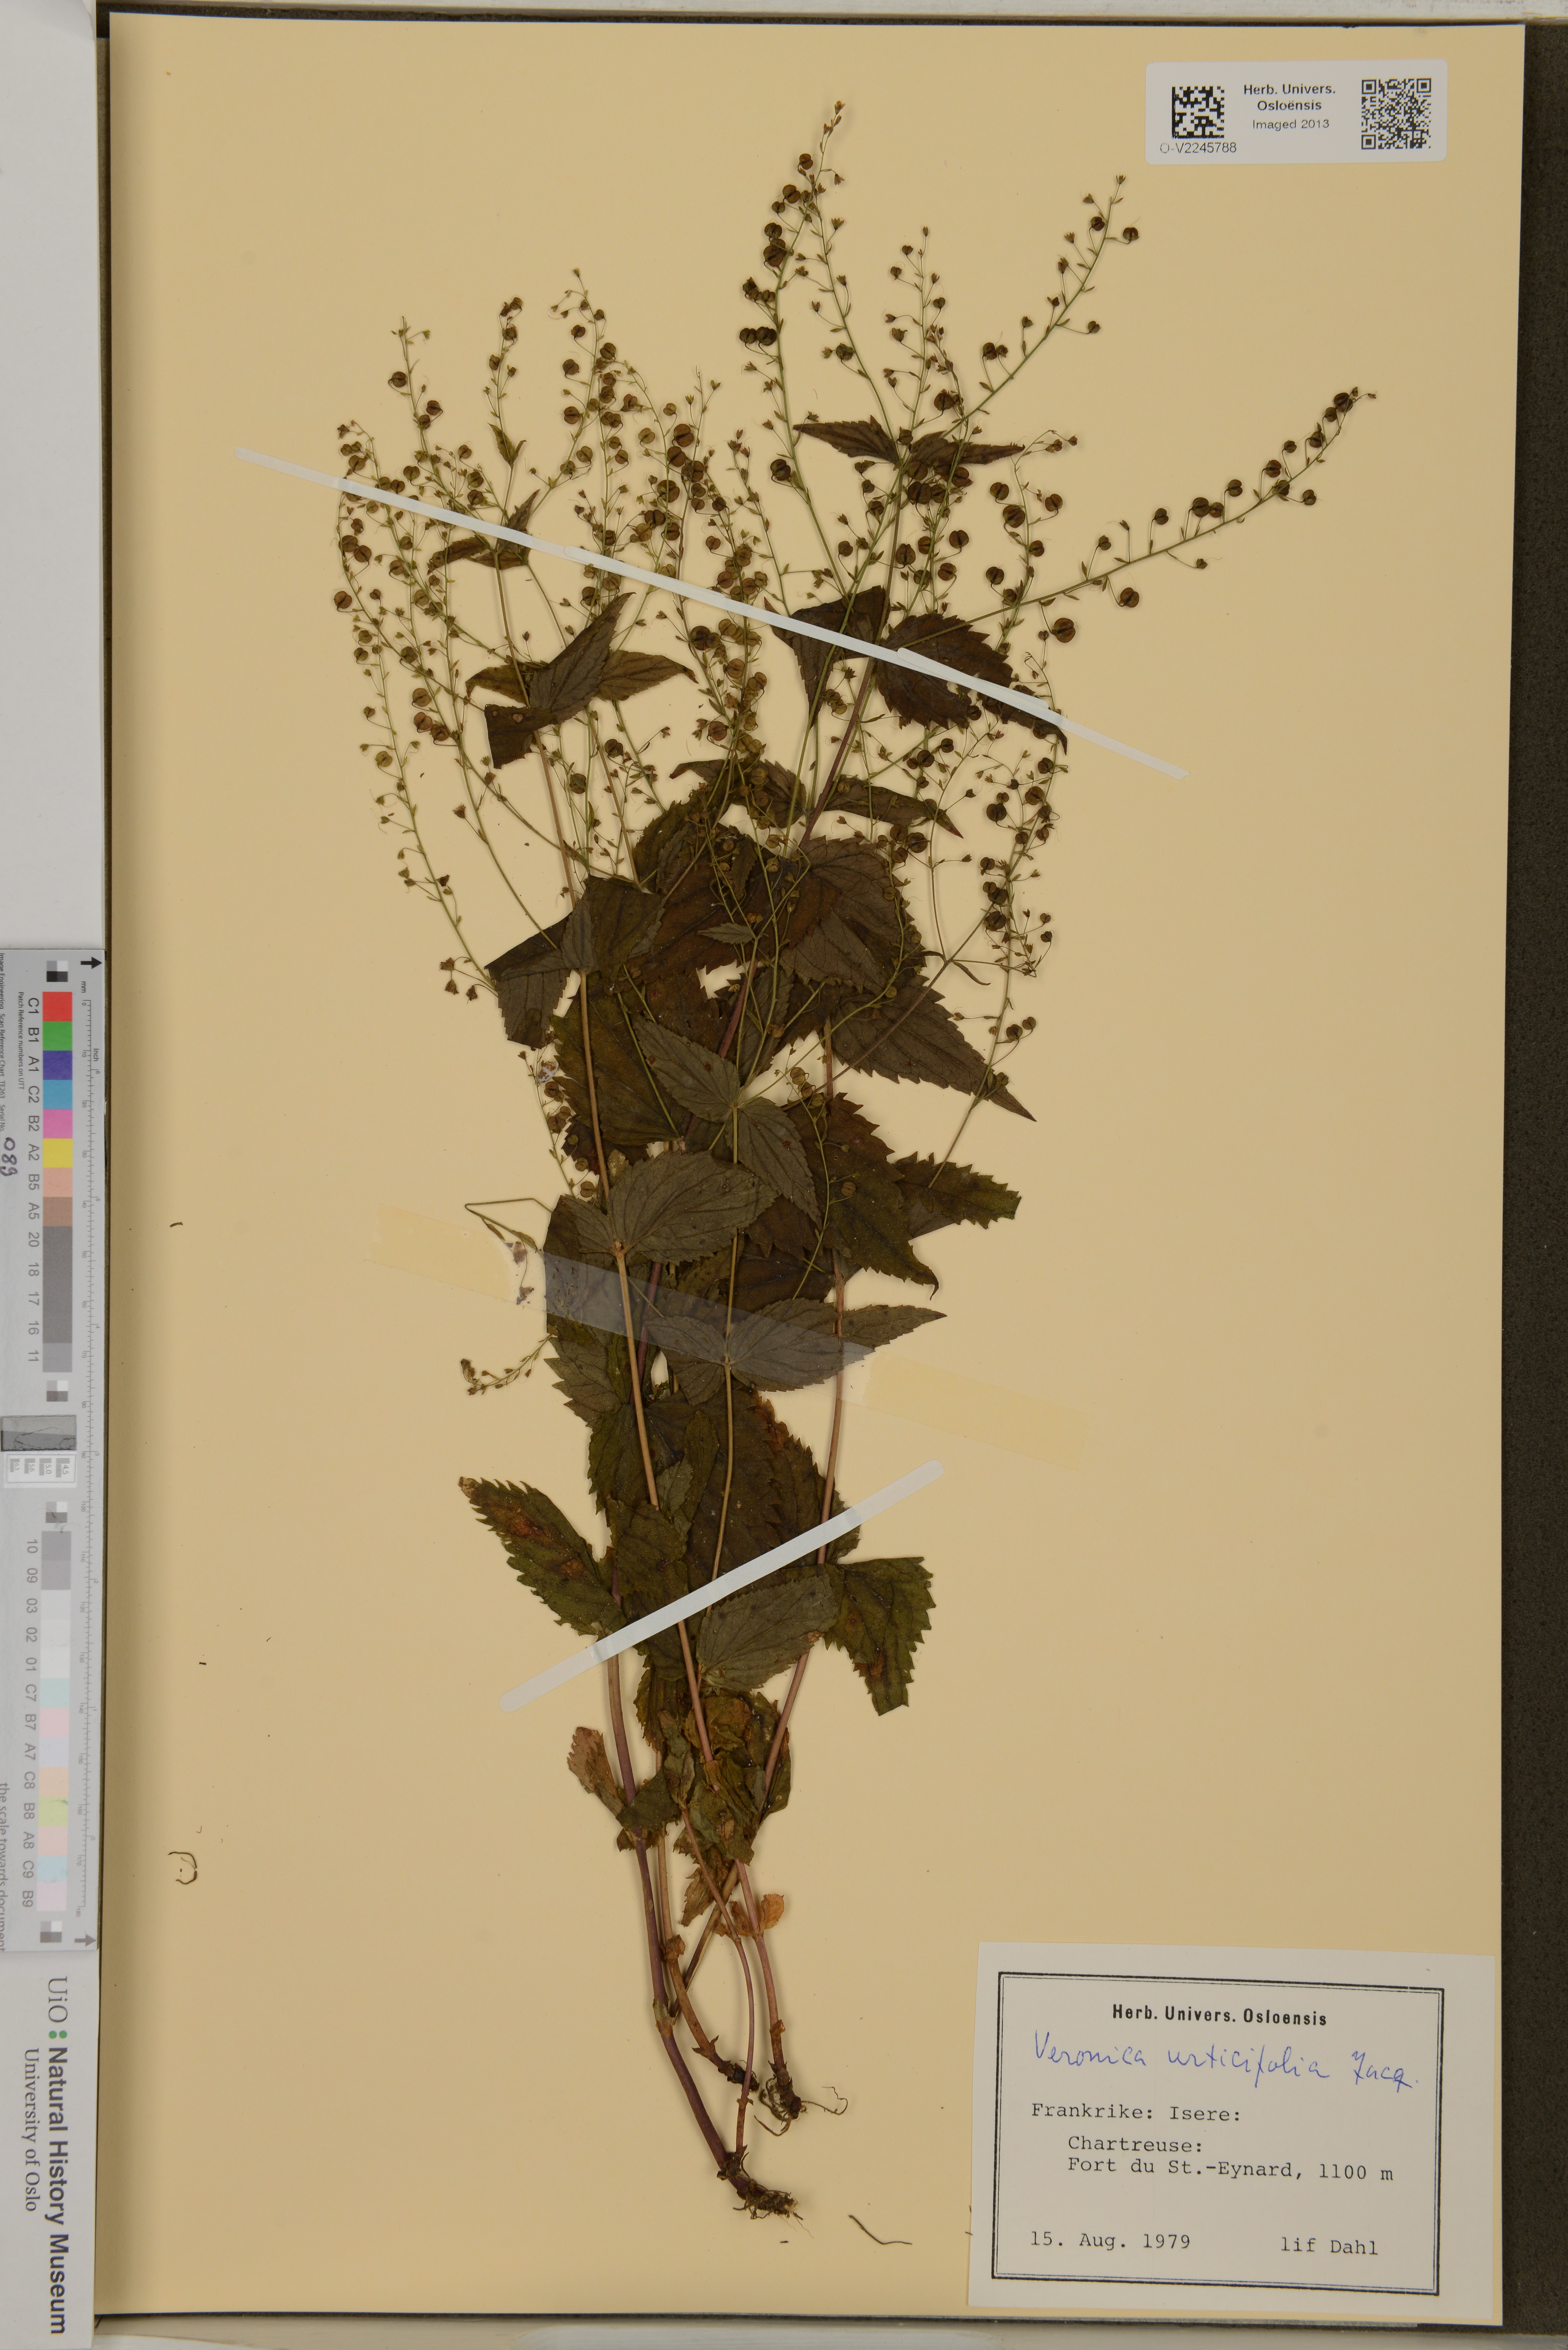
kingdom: Plantae
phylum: Tracheophyta
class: Magnoliopsida
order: Lamiales
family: Plantaginaceae
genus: Veronica
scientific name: Veronica urticifolia
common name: Nettle-leaf speedwell
